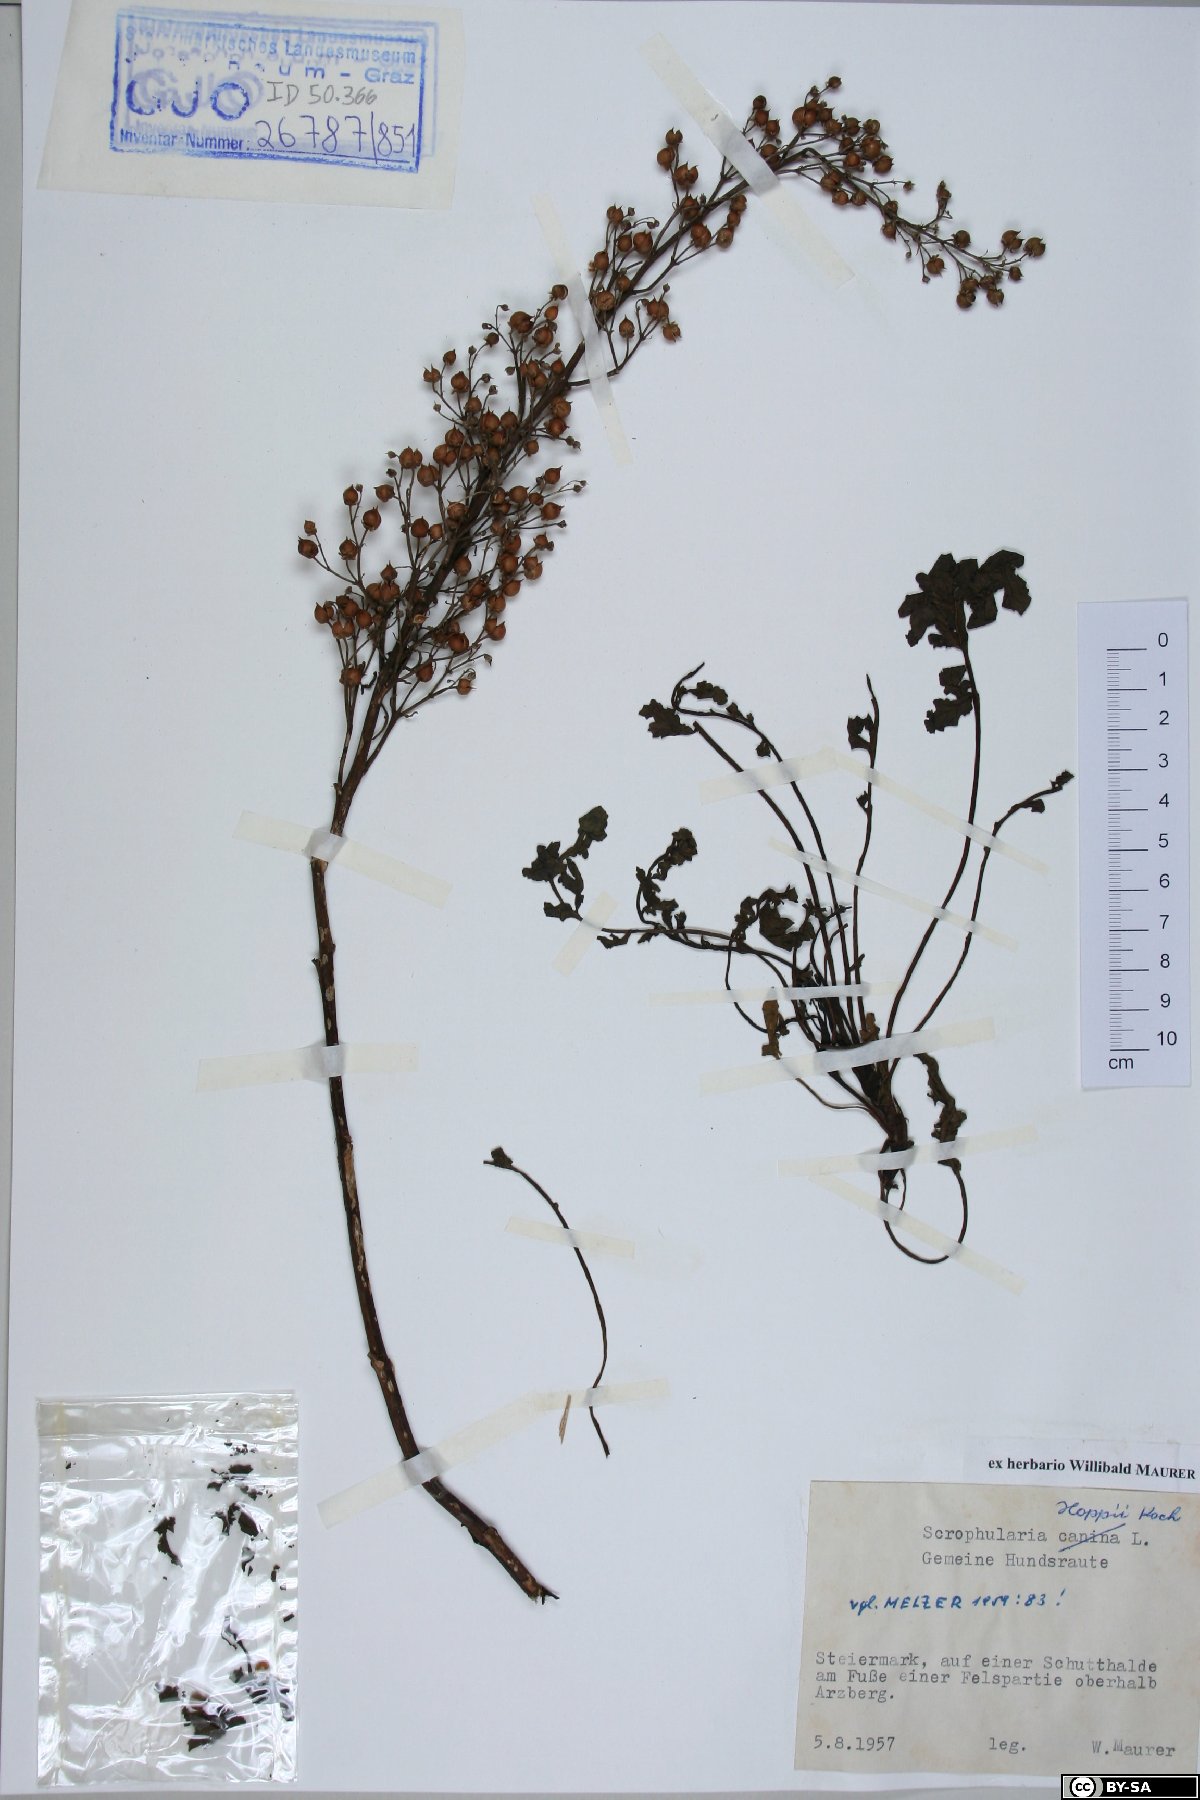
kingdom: Plantae
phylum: Tracheophyta
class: Magnoliopsida
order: Lamiales
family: Scrophulariaceae
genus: Scrophularia
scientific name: Scrophularia canina
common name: French figwort
